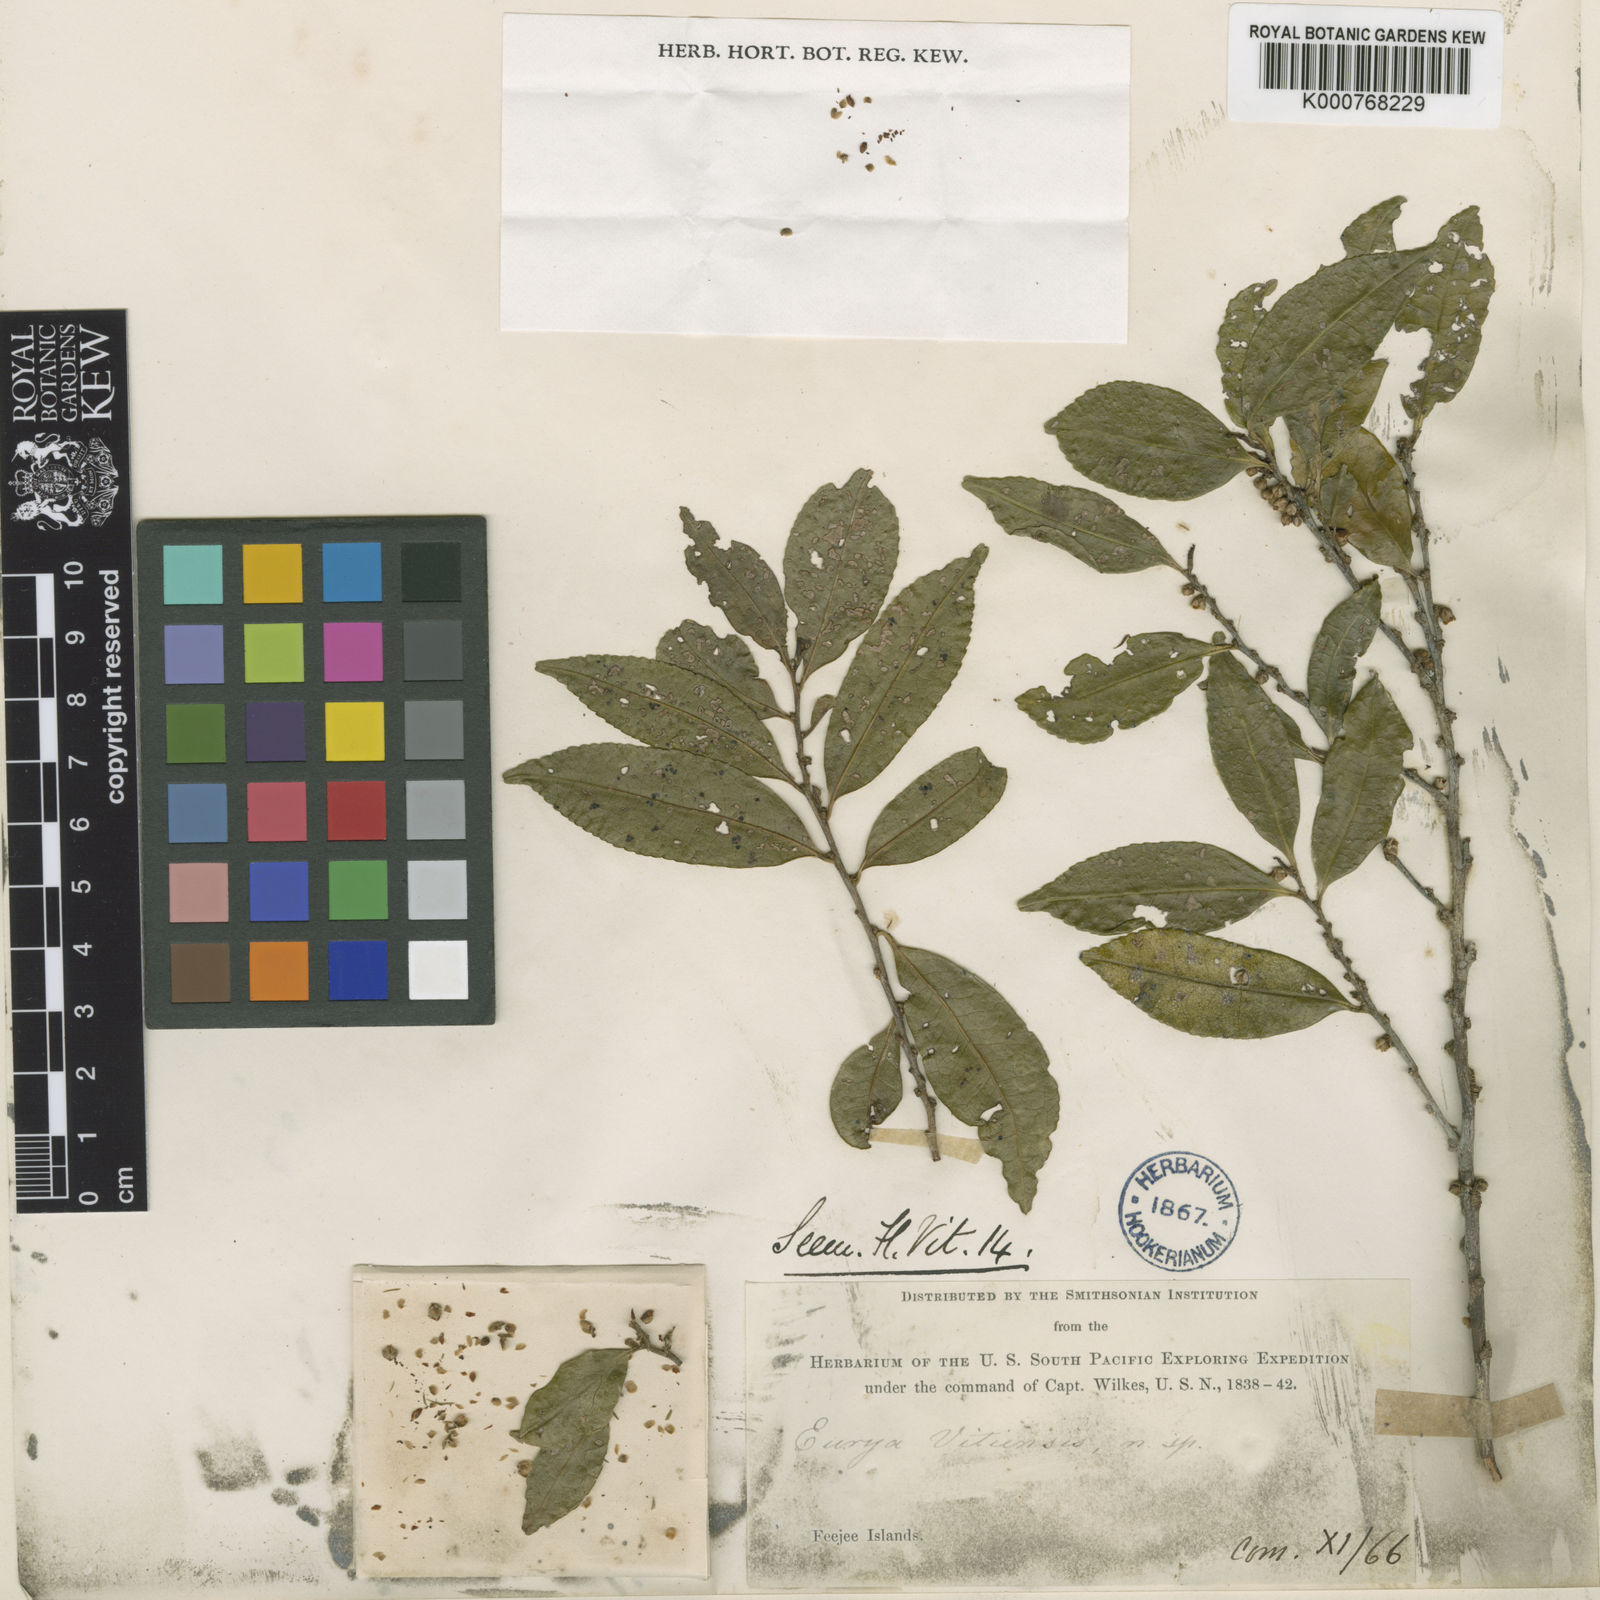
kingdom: Plantae
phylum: Tracheophyta
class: Magnoliopsida
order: Ericales
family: Pentaphylacaceae
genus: Eurya
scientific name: Eurya
